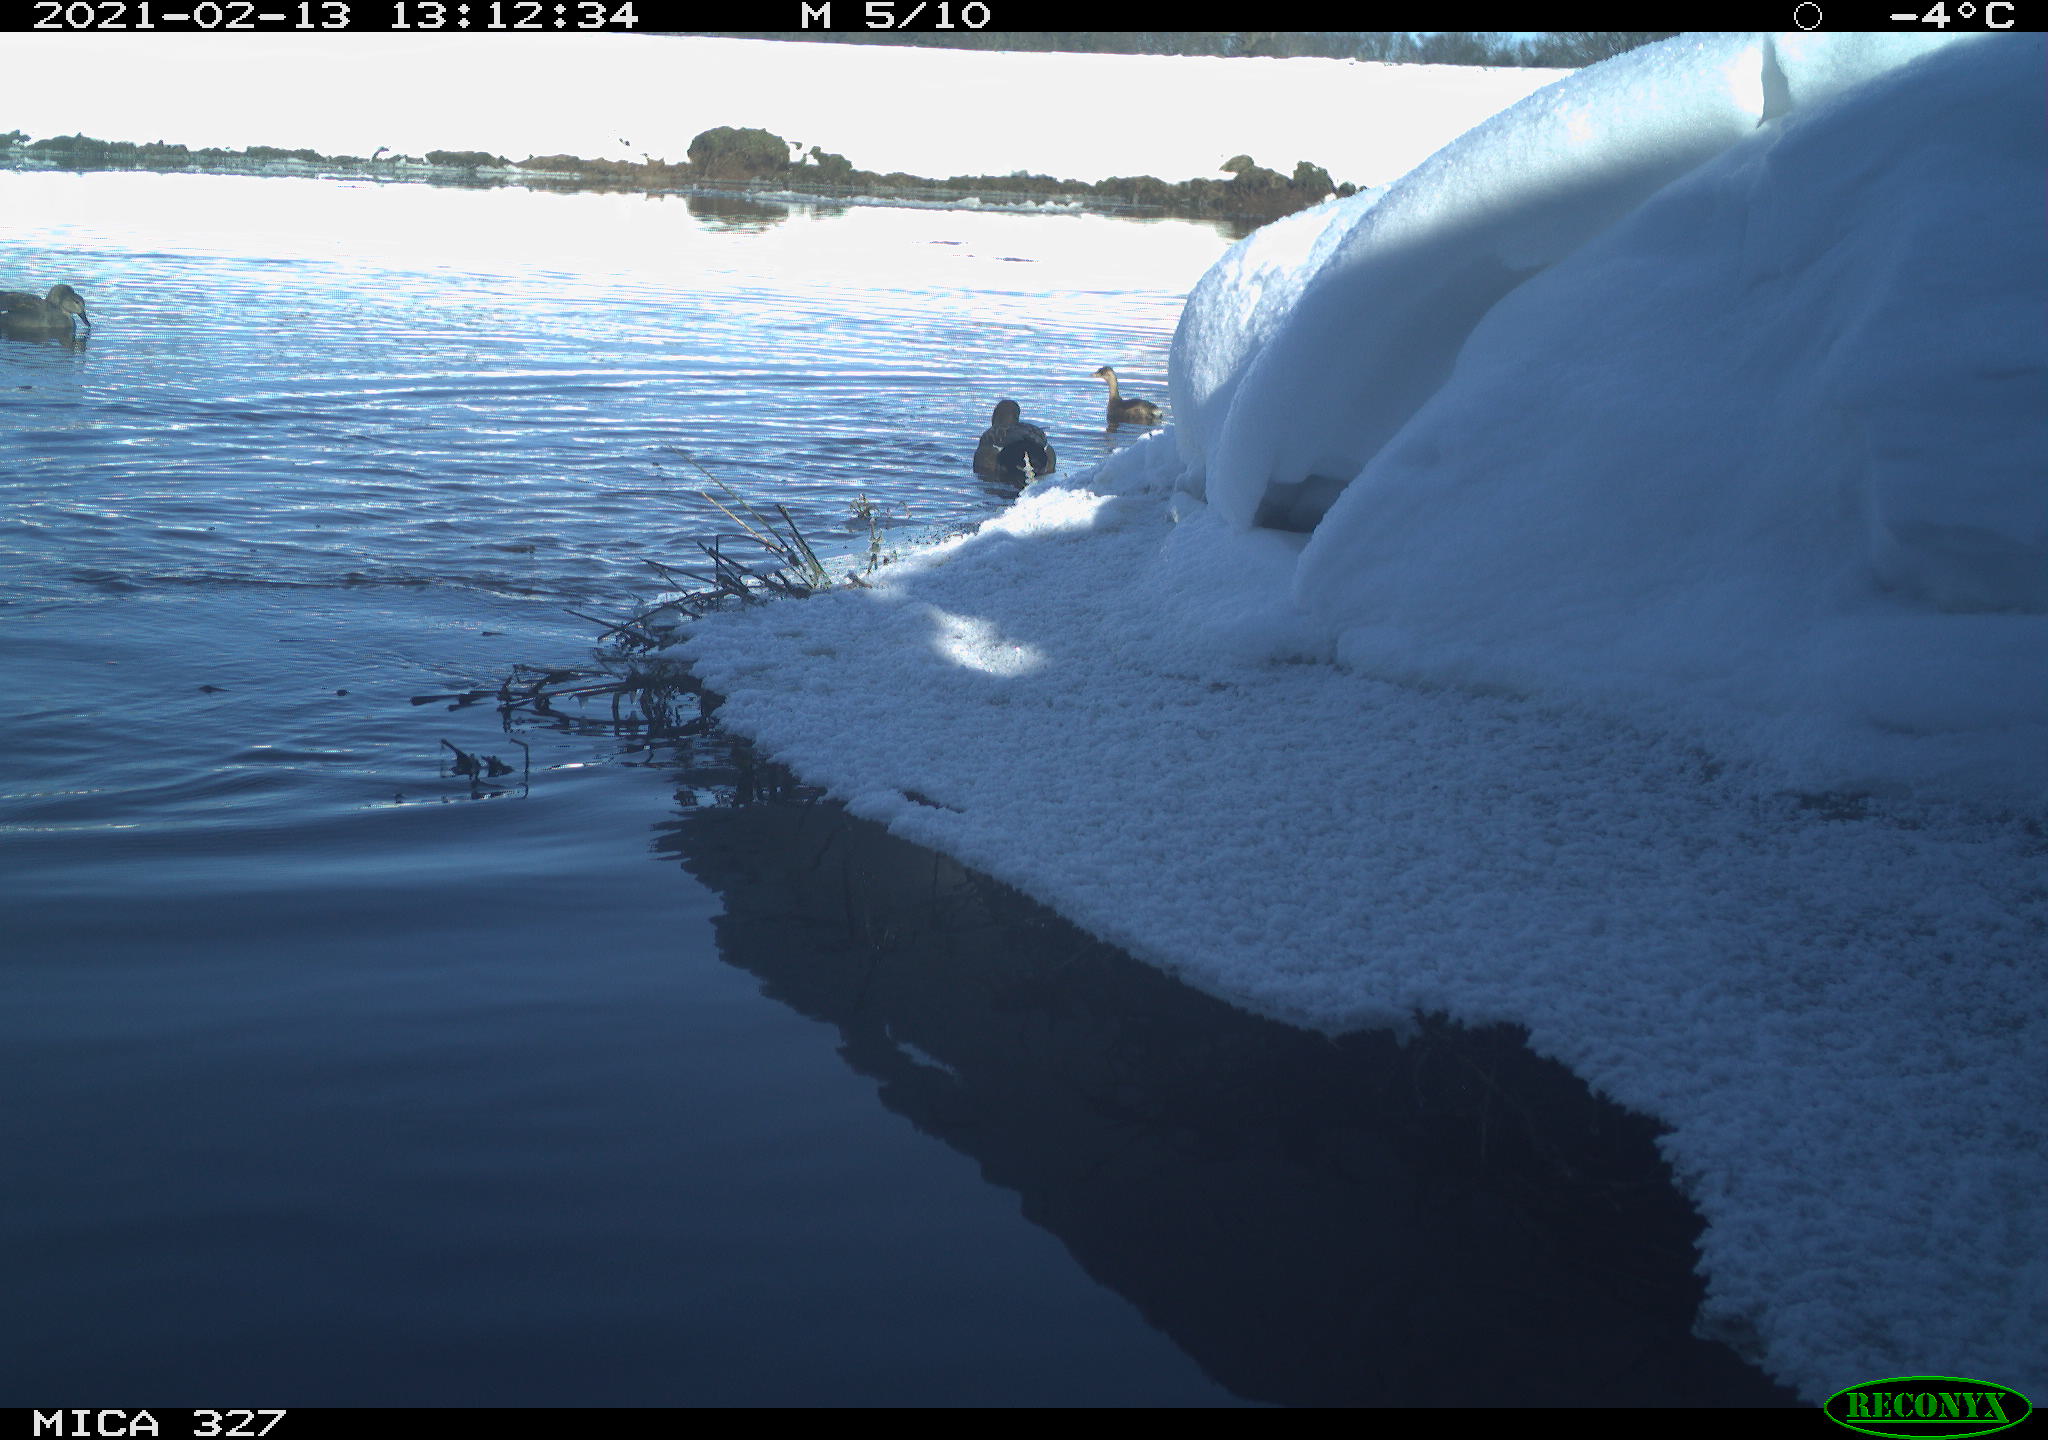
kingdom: Animalia
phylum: Chordata
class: Aves
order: Anseriformes
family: Anatidae
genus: Anas
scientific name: Anas
